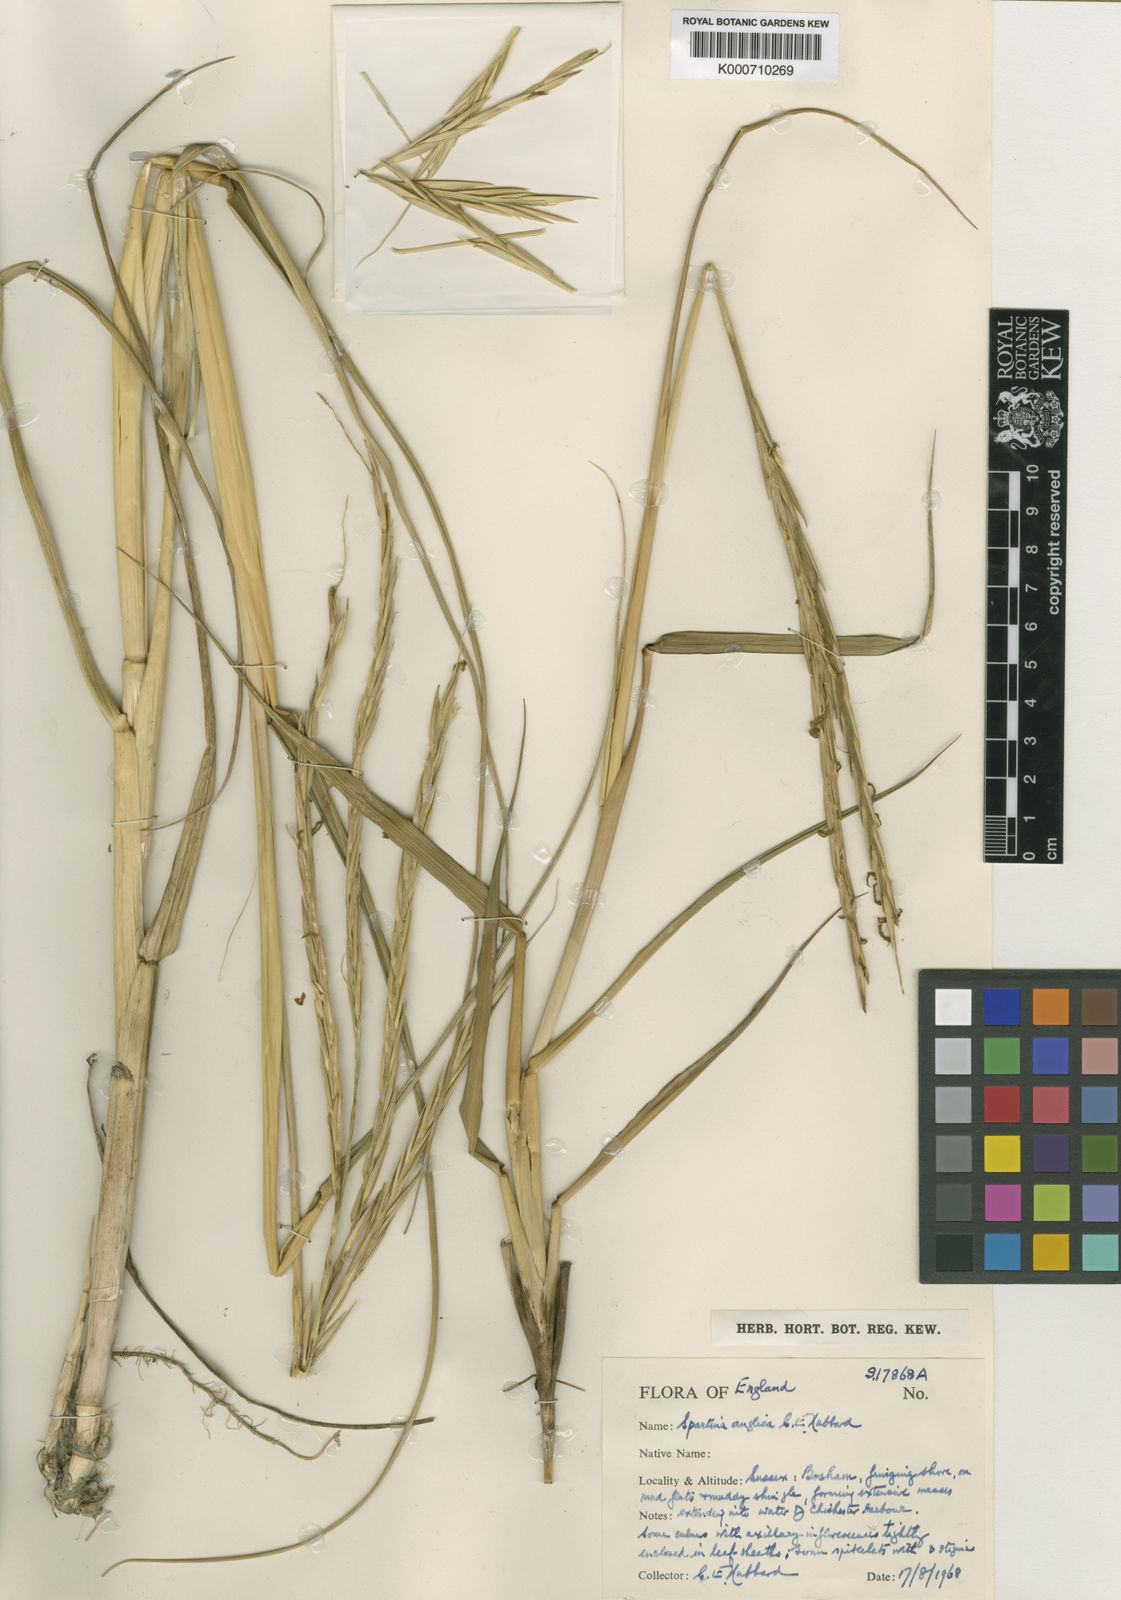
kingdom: Plantae
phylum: Tracheophyta
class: Liliopsida
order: Poales
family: Poaceae
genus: Sporobolus
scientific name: Sporobolus anglicus
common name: English cordgrass
